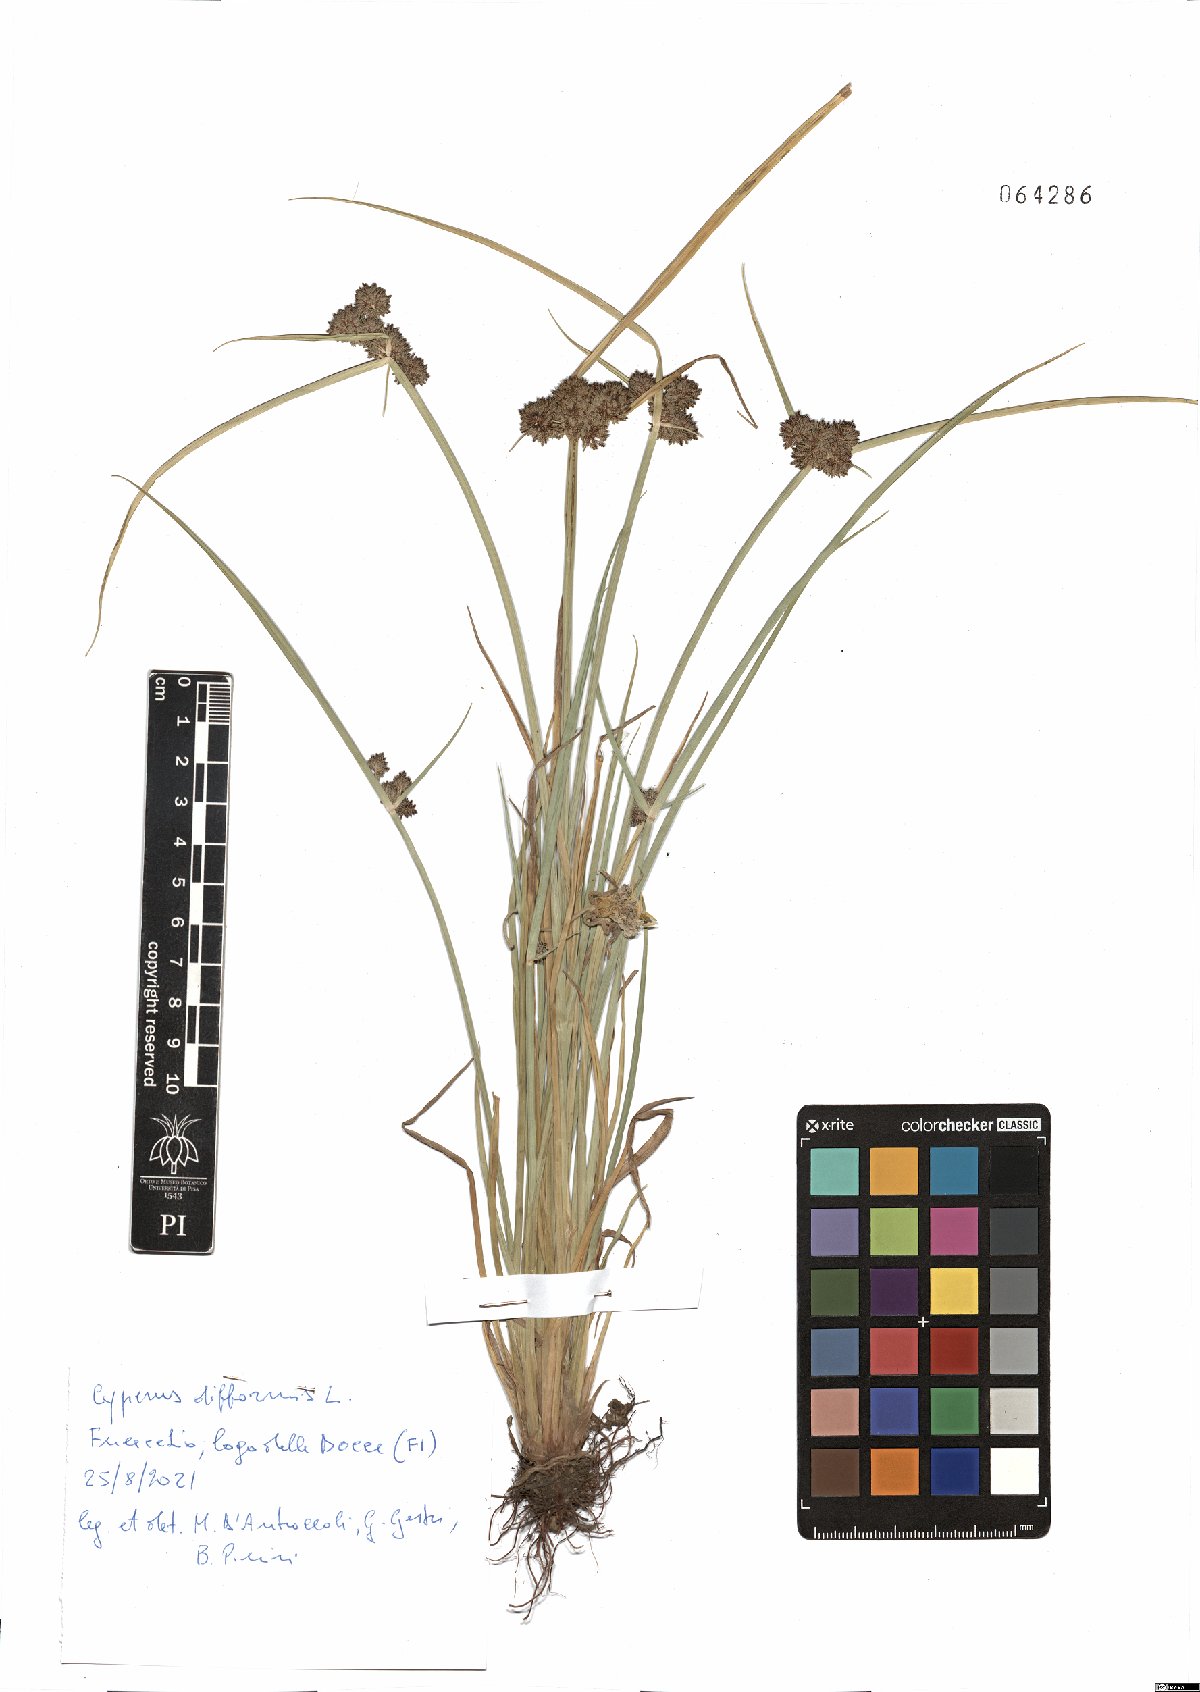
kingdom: Plantae
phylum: Tracheophyta
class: Liliopsida
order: Poales
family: Cyperaceae
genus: Cyperus
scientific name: Cyperus difformis
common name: Variable flatsedge
